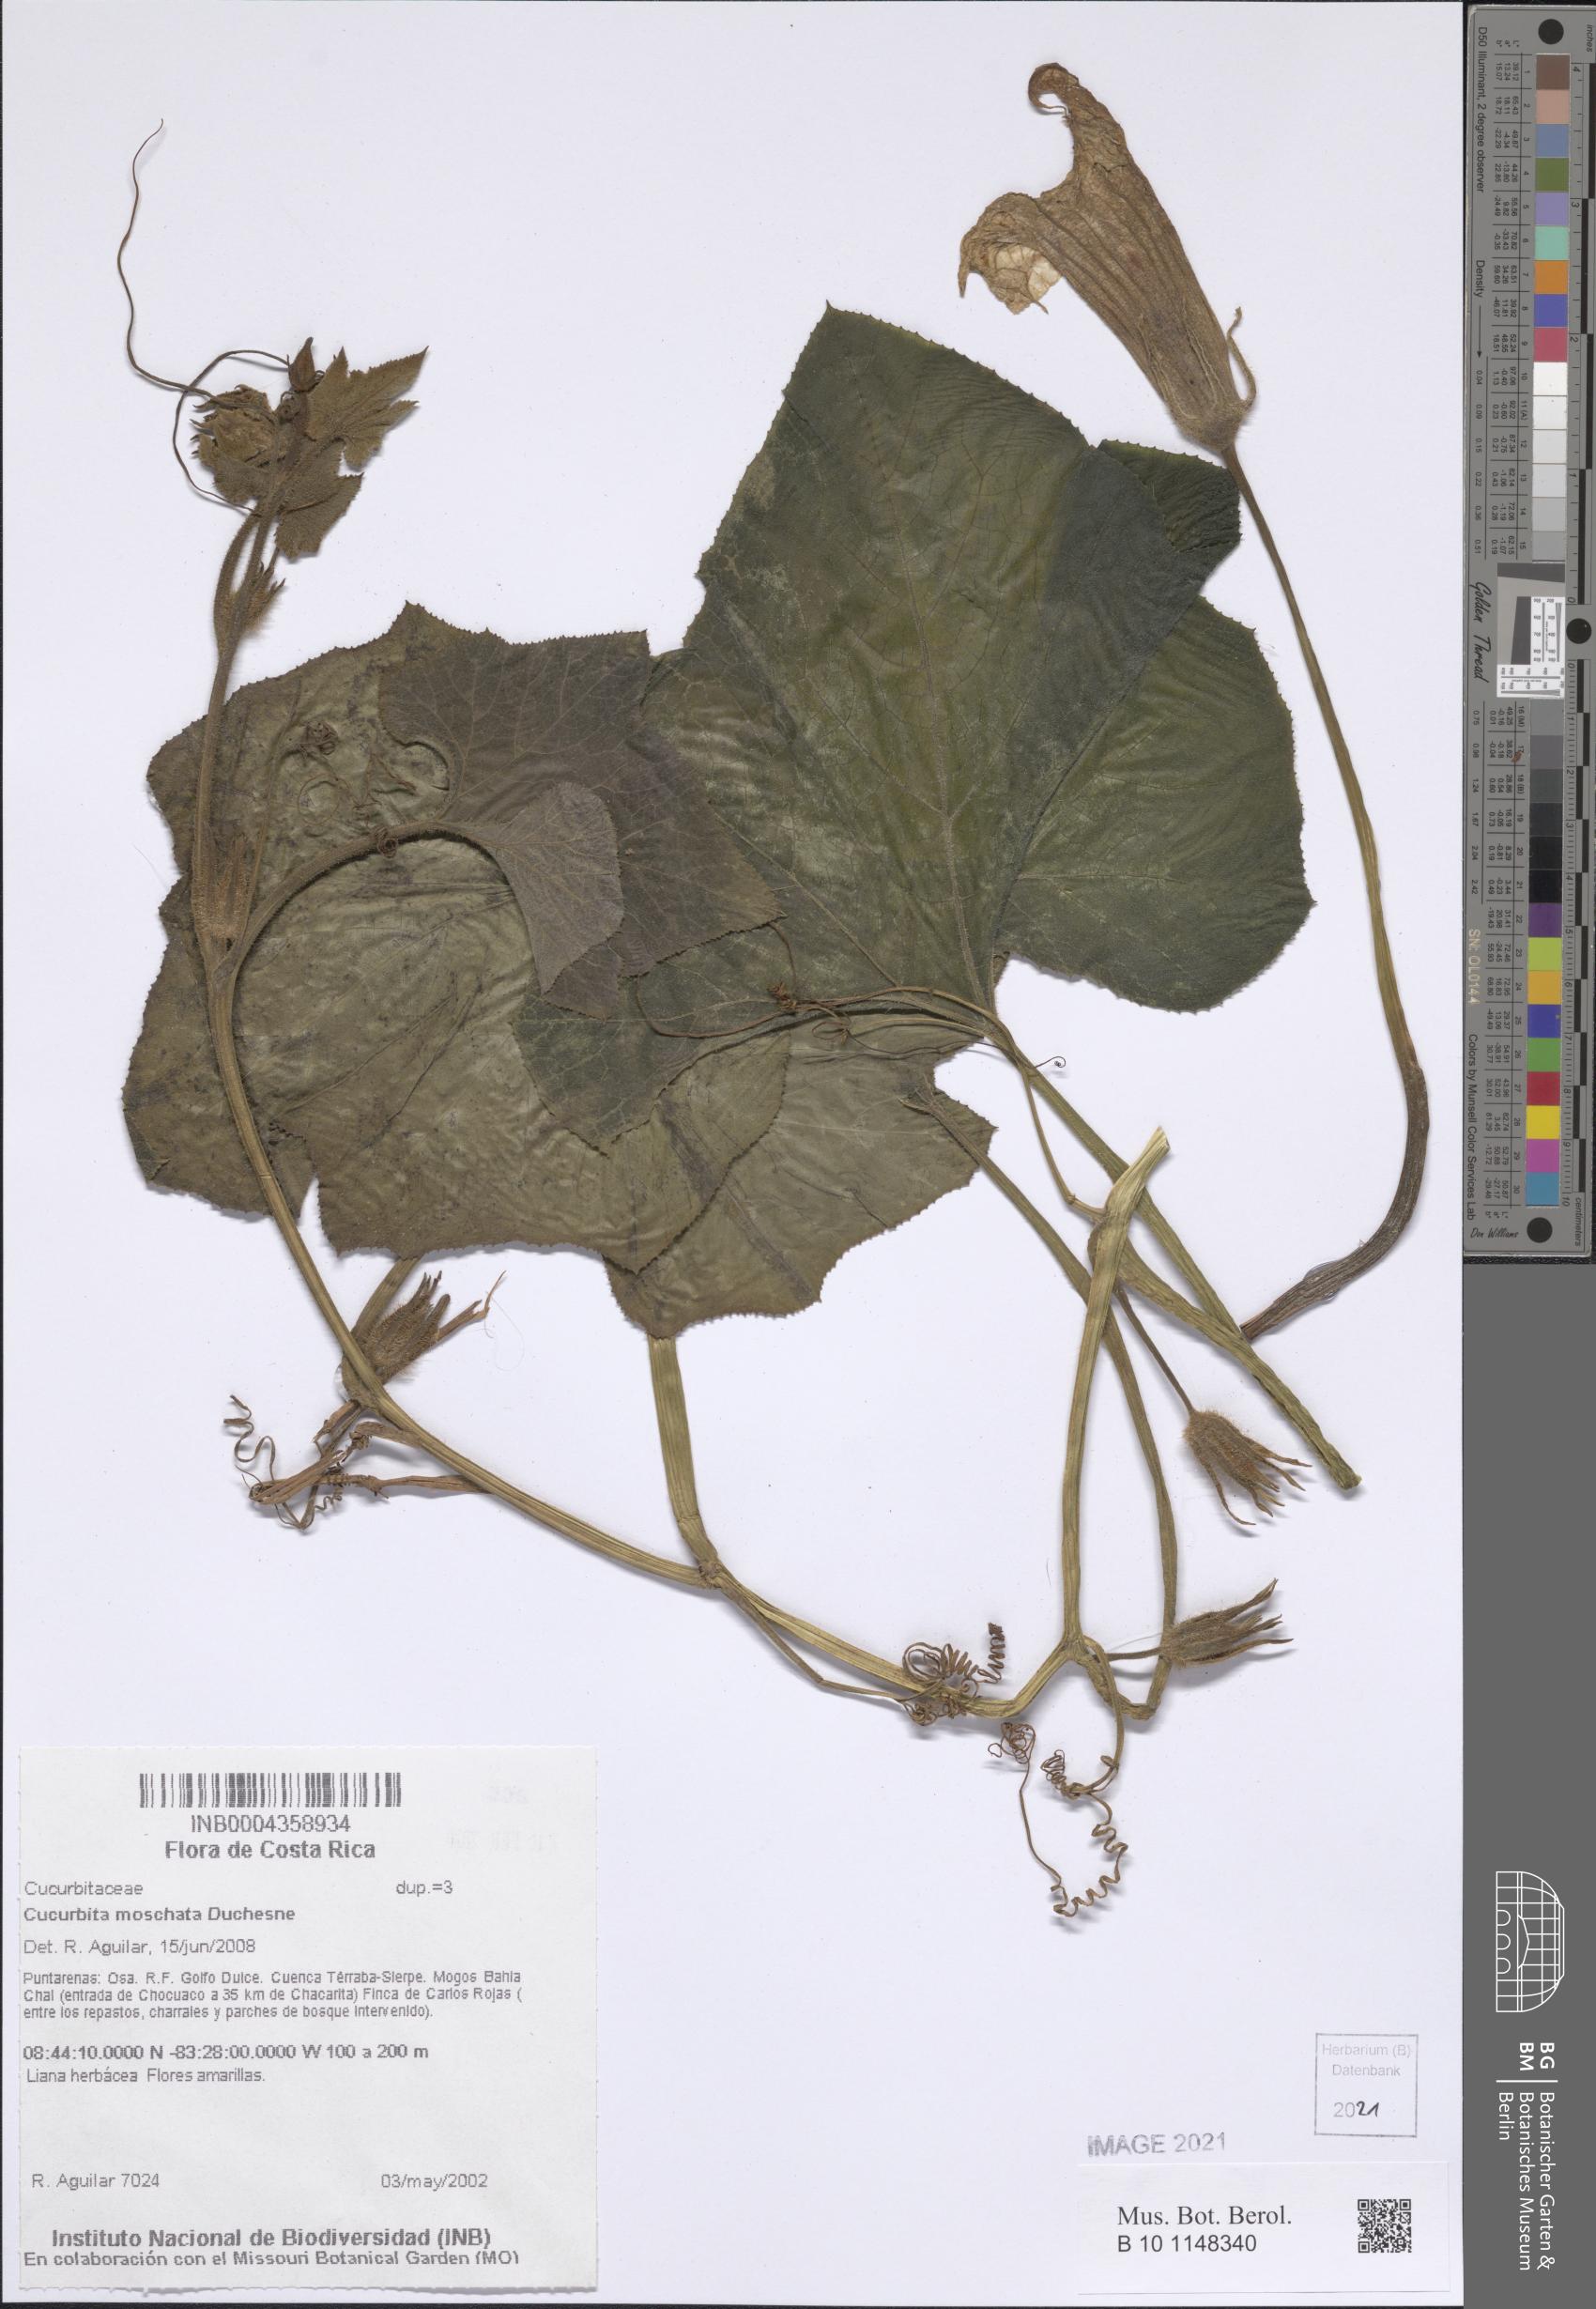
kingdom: Plantae
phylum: Tracheophyta
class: Magnoliopsida
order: Cucurbitales
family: Cucurbitaceae
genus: Cucurbita
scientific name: Cucurbita moschata
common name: Squash / pumpkin
